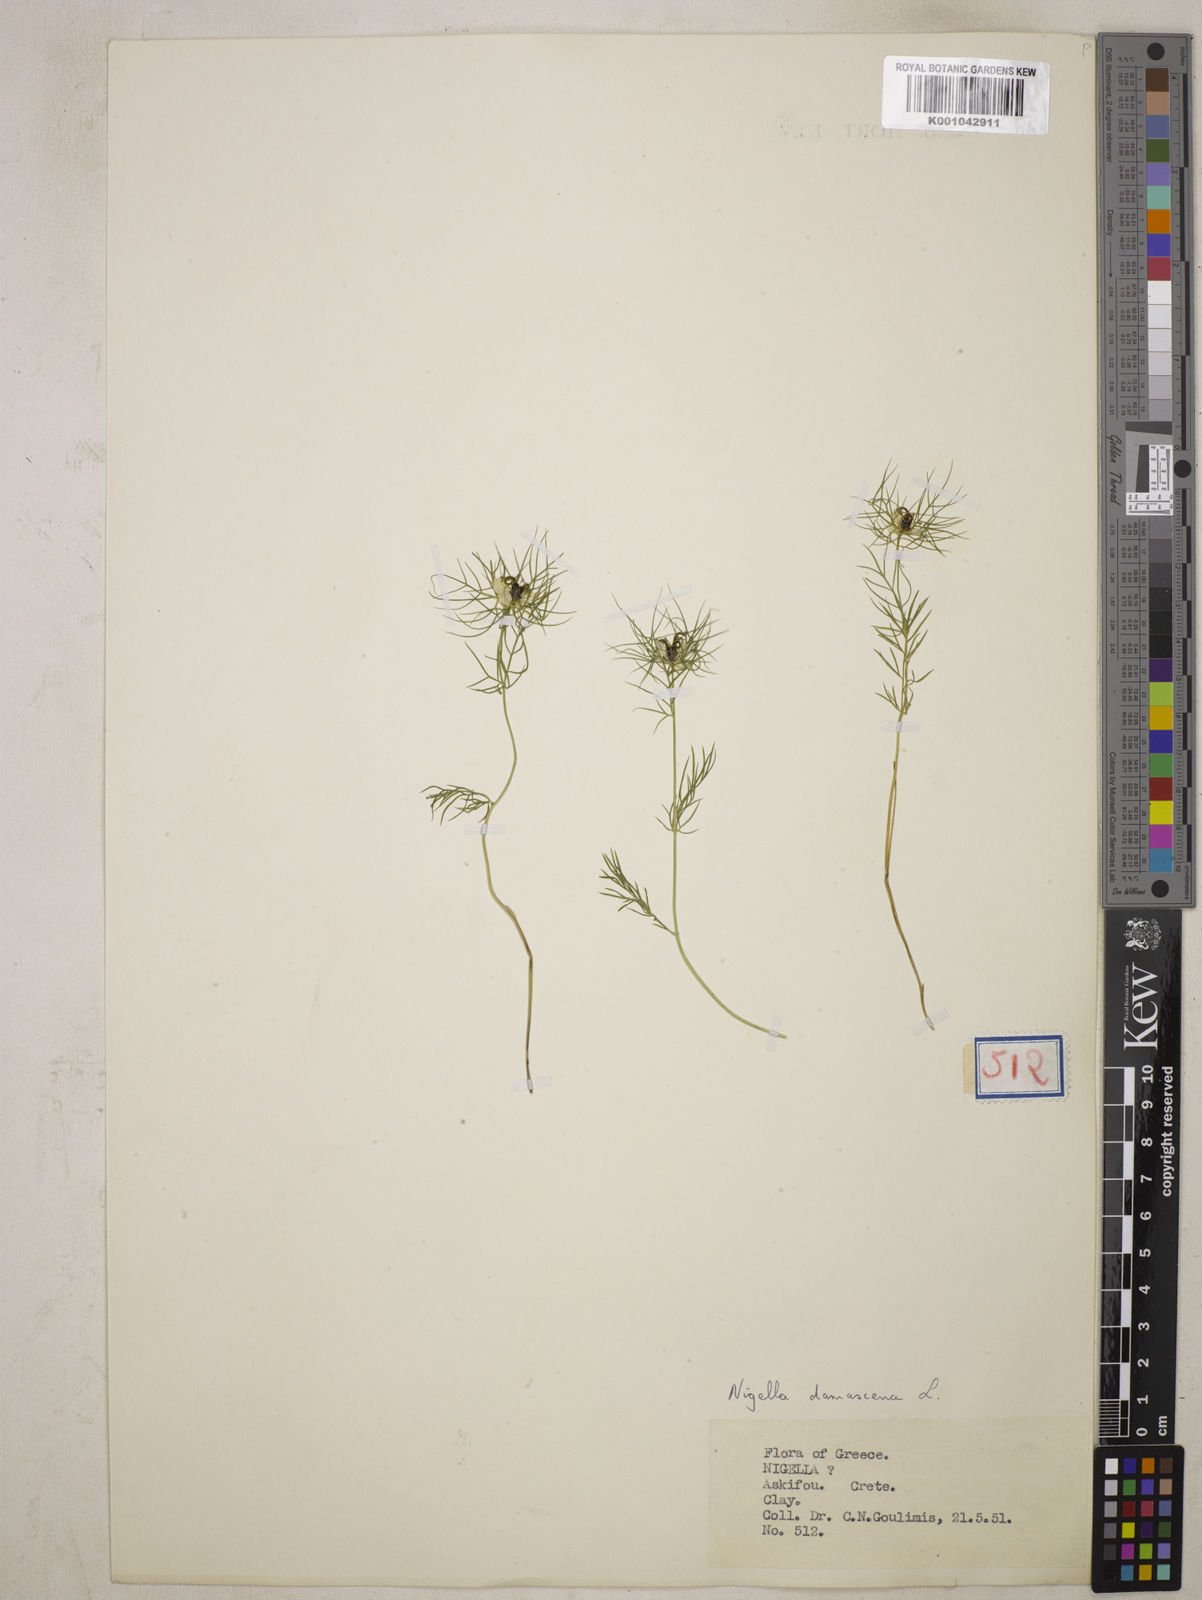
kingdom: Plantae
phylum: Tracheophyta
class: Magnoliopsida
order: Ranunculales
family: Ranunculaceae
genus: Nigella
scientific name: Nigella damascena
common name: Love-in-a-mist
